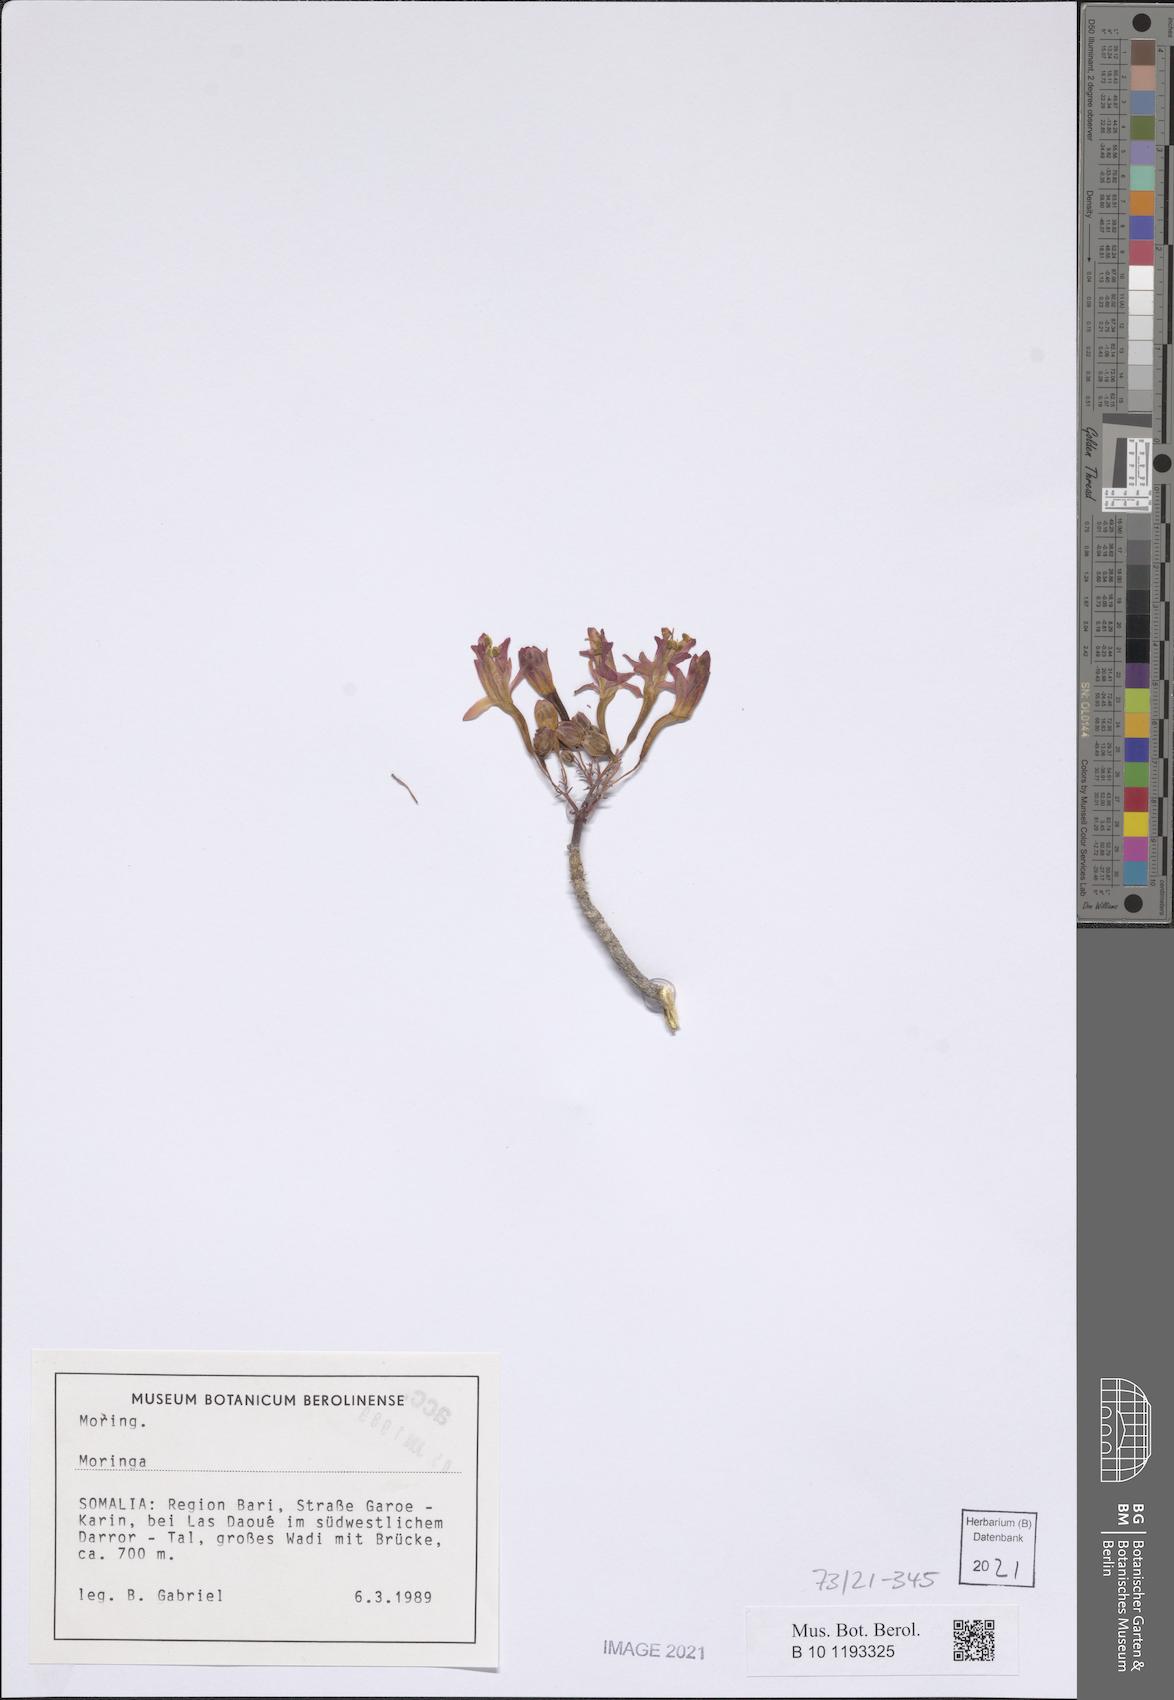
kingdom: Plantae
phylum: Tracheophyta
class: Magnoliopsida
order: Brassicales
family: Moringaceae
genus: Moringa
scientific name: Moringa
